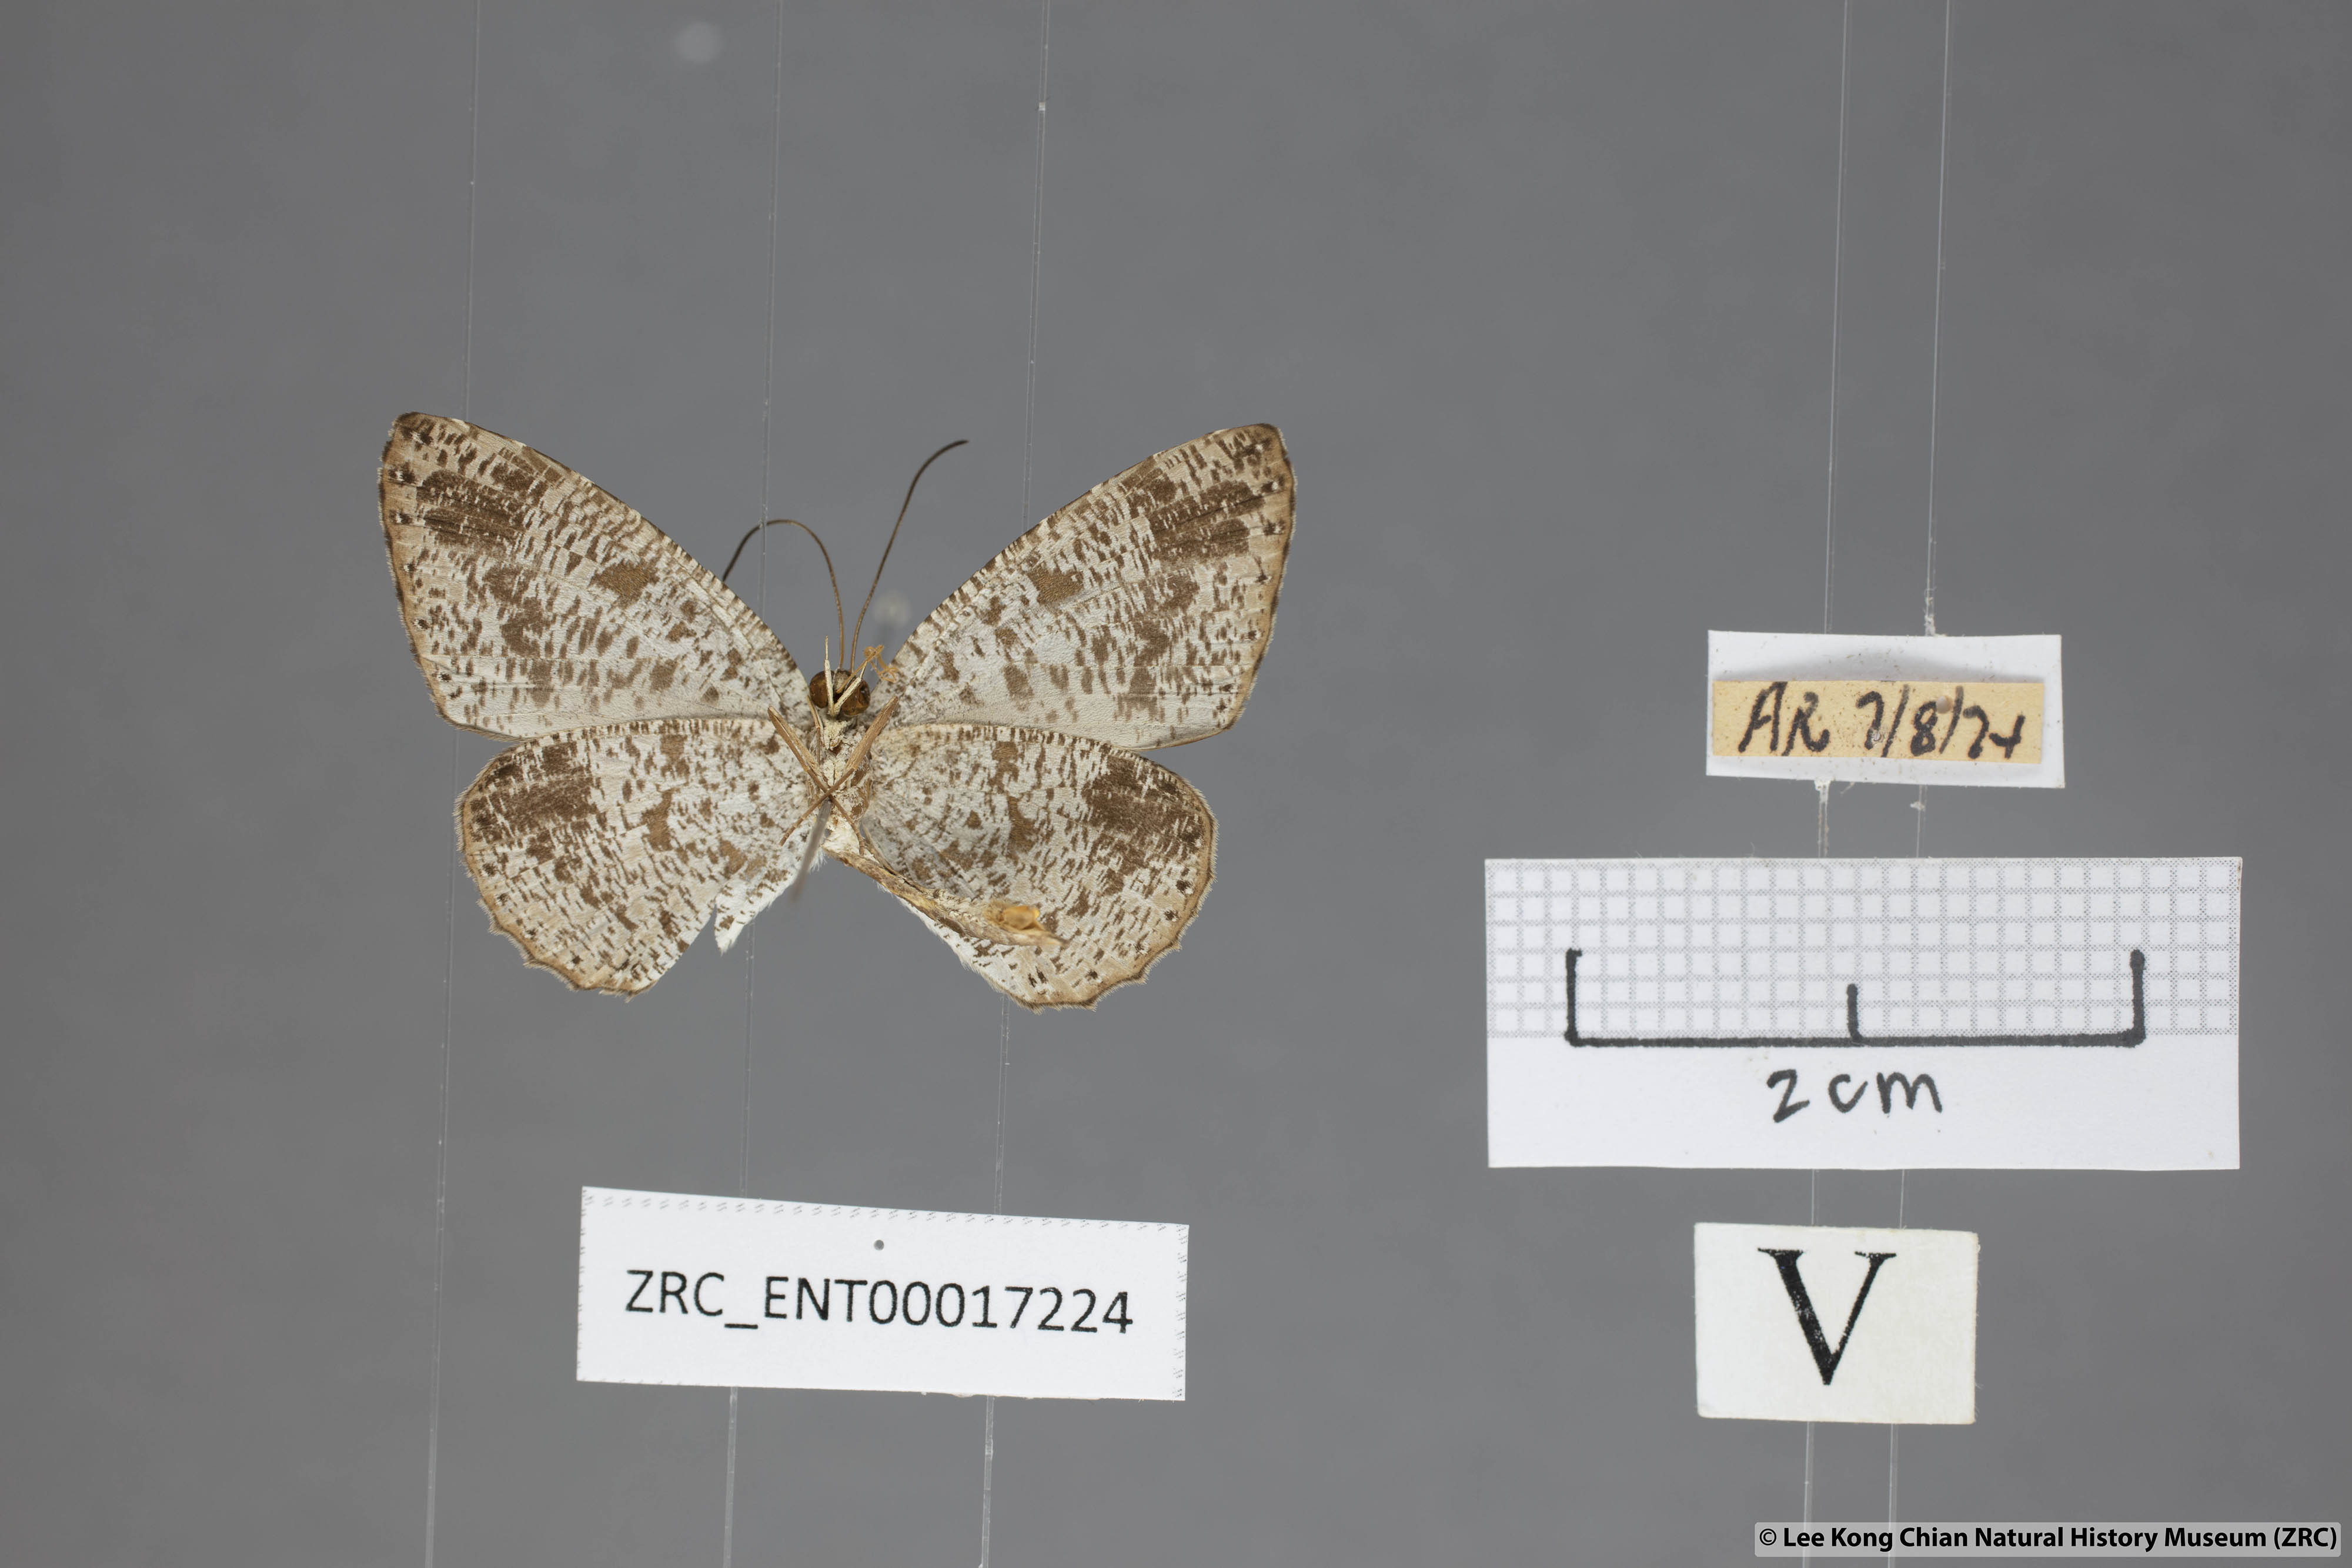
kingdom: Animalia
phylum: Arthropoda
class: Insecta
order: Lepidoptera
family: Lycaenidae
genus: Allotinus
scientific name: Allotinus fabius
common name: Angled darkie
